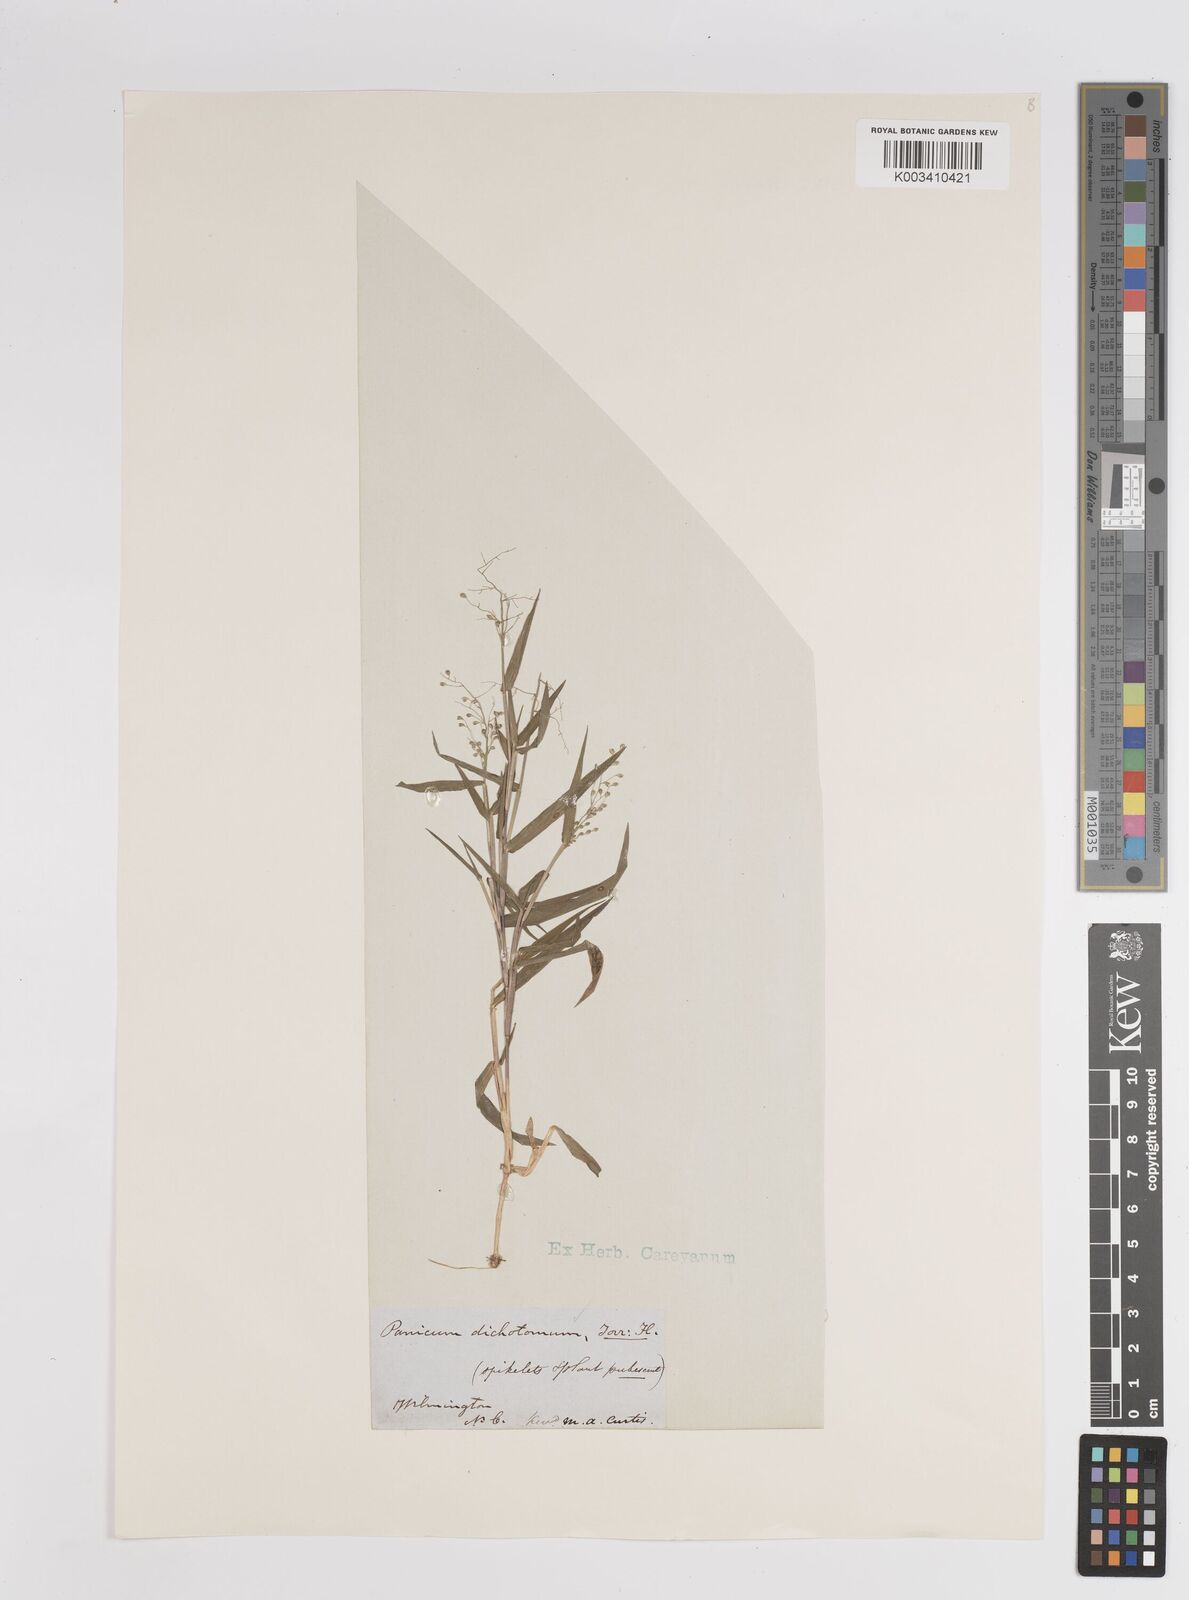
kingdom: Plantae
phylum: Tracheophyta
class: Liliopsida
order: Poales
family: Poaceae
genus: Dichanthelium
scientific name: Dichanthelium dichotomum
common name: Cypress panicgrass
